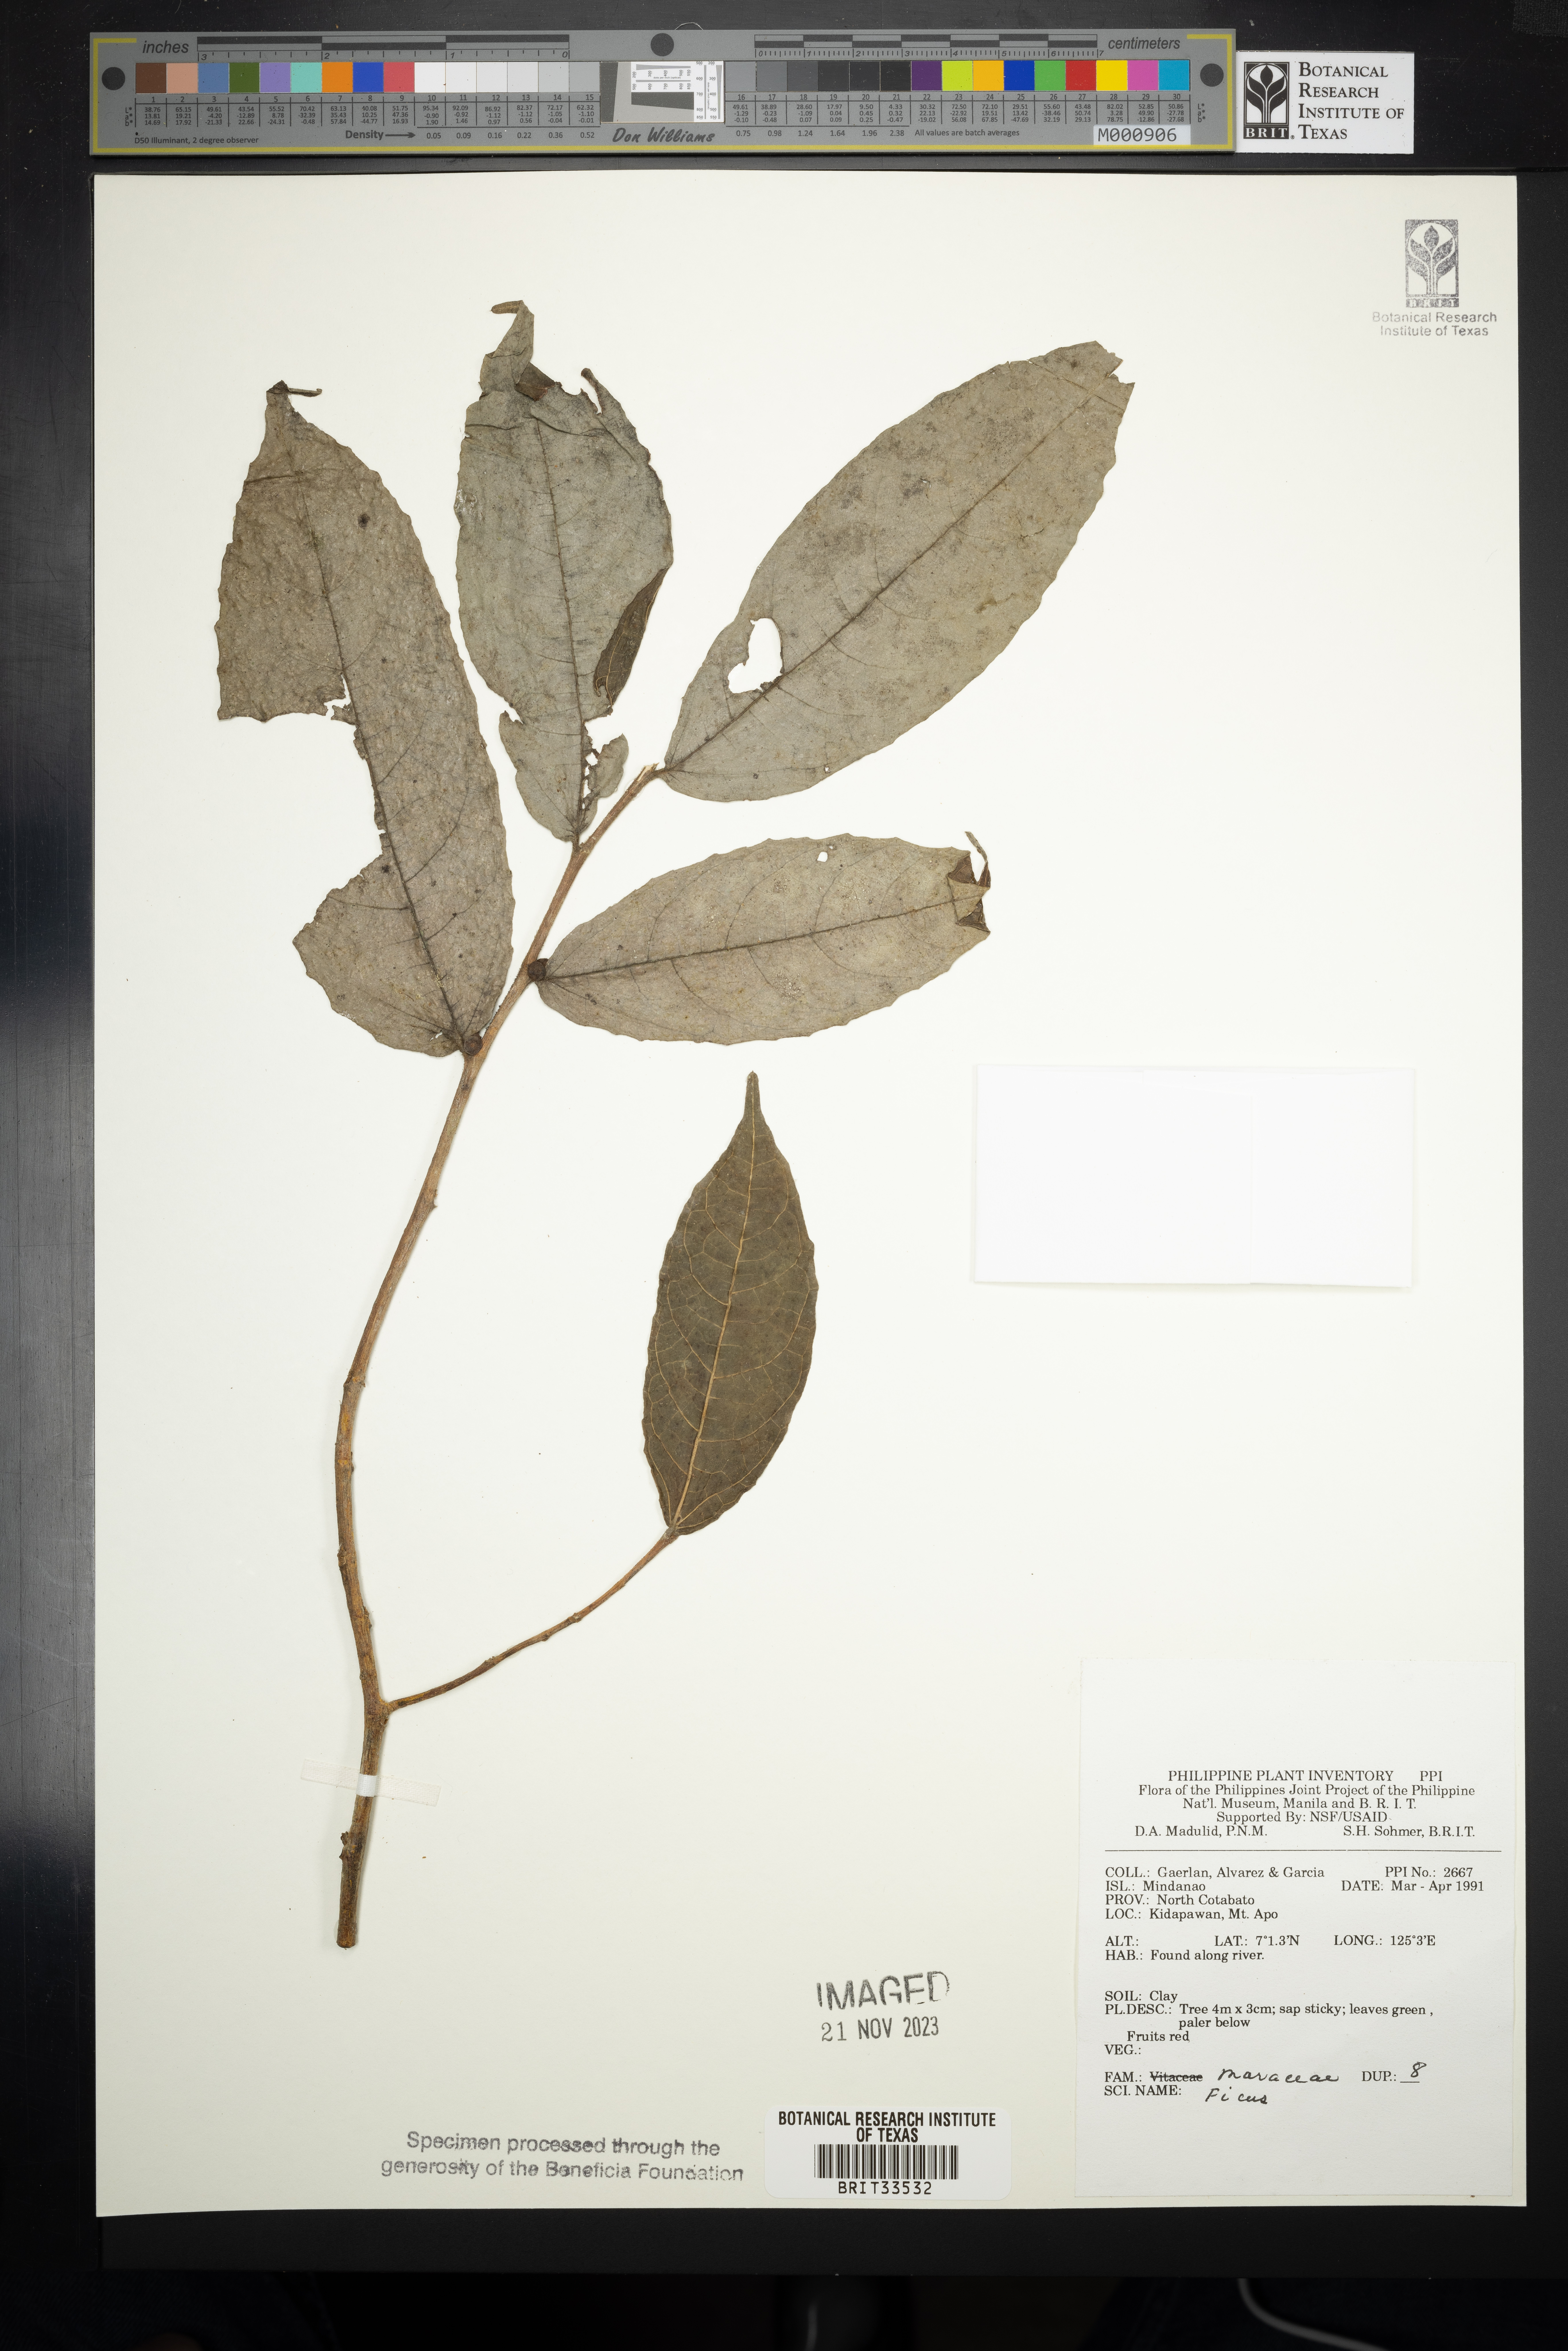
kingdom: Plantae
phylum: Tracheophyta
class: Magnoliopsida
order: Rosales
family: Moraceae
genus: Ficus
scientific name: Ficus
